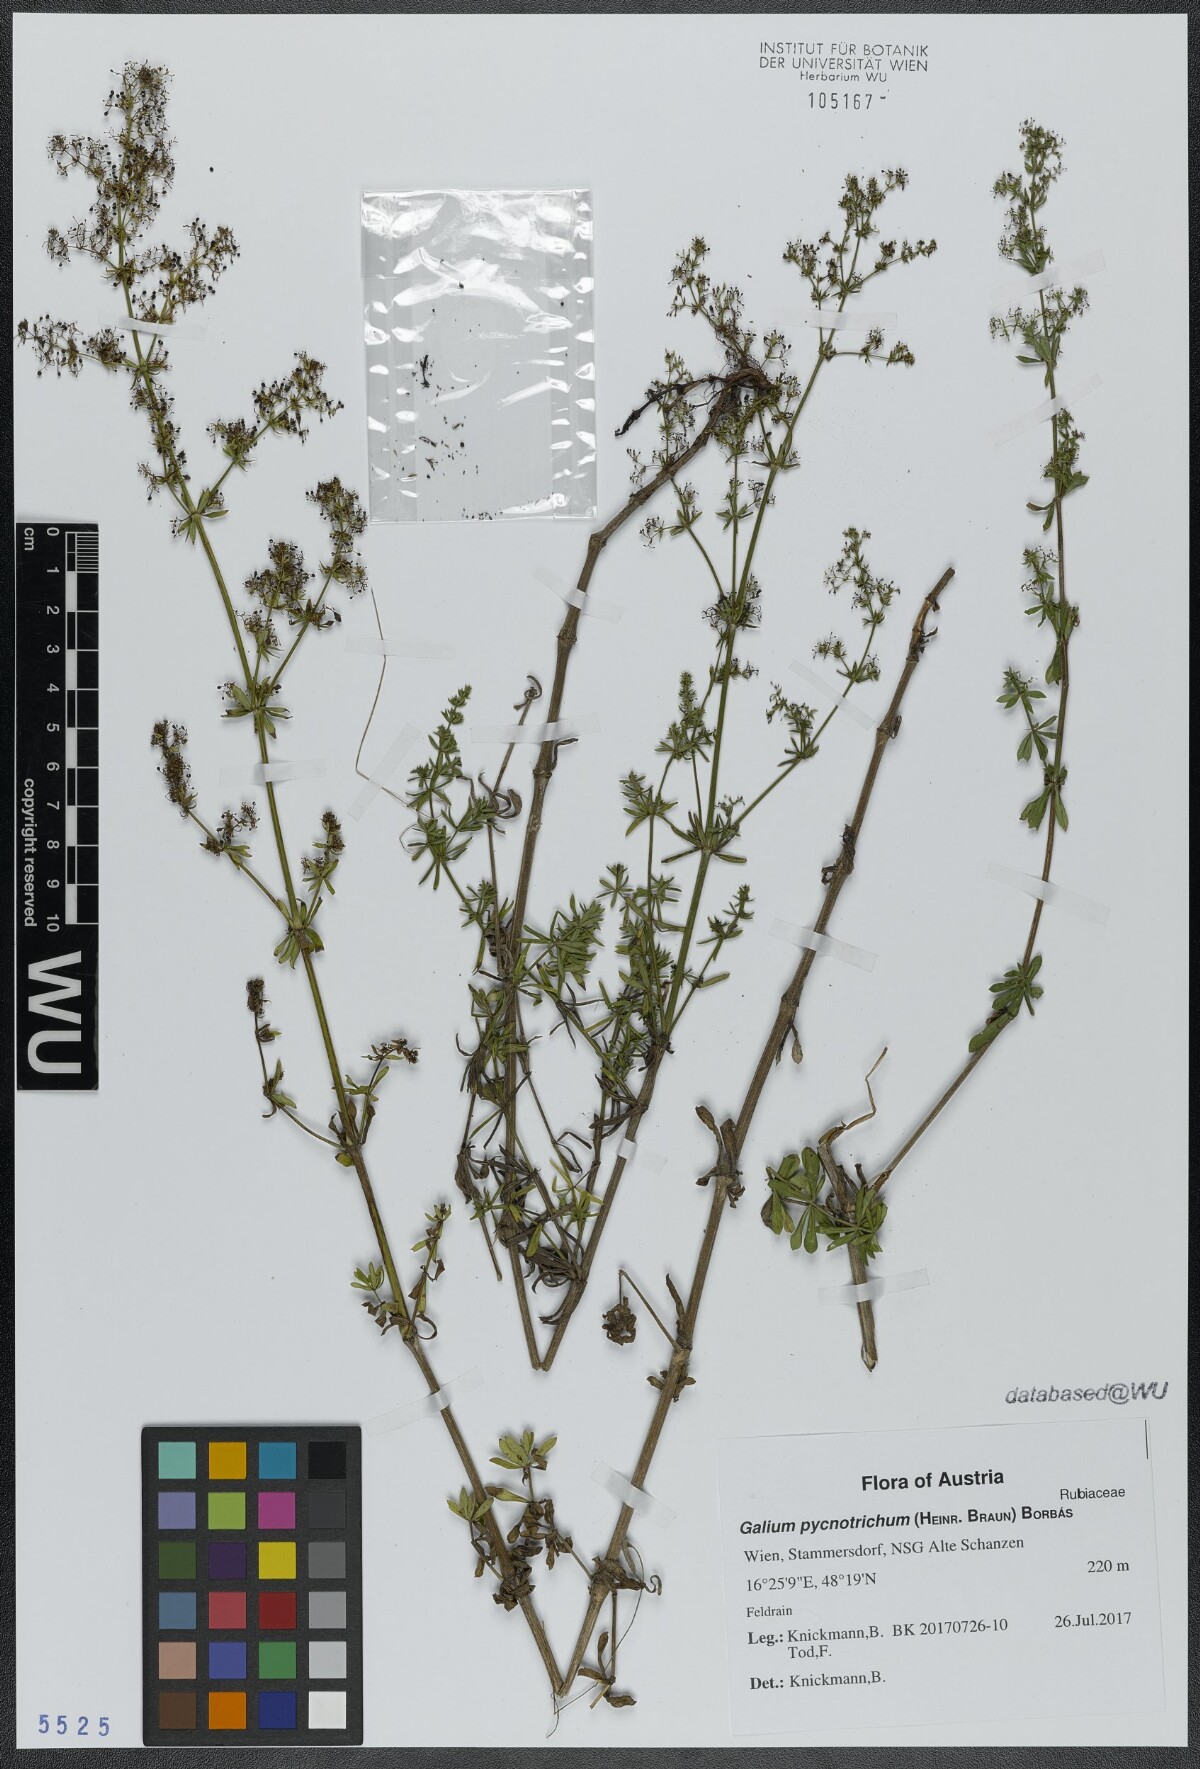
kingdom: Plantae
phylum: Tracheophyta
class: Magnoliopsida
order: Gentianales
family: Rubiaceae
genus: Galium
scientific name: Galium album
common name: White bedstraw
